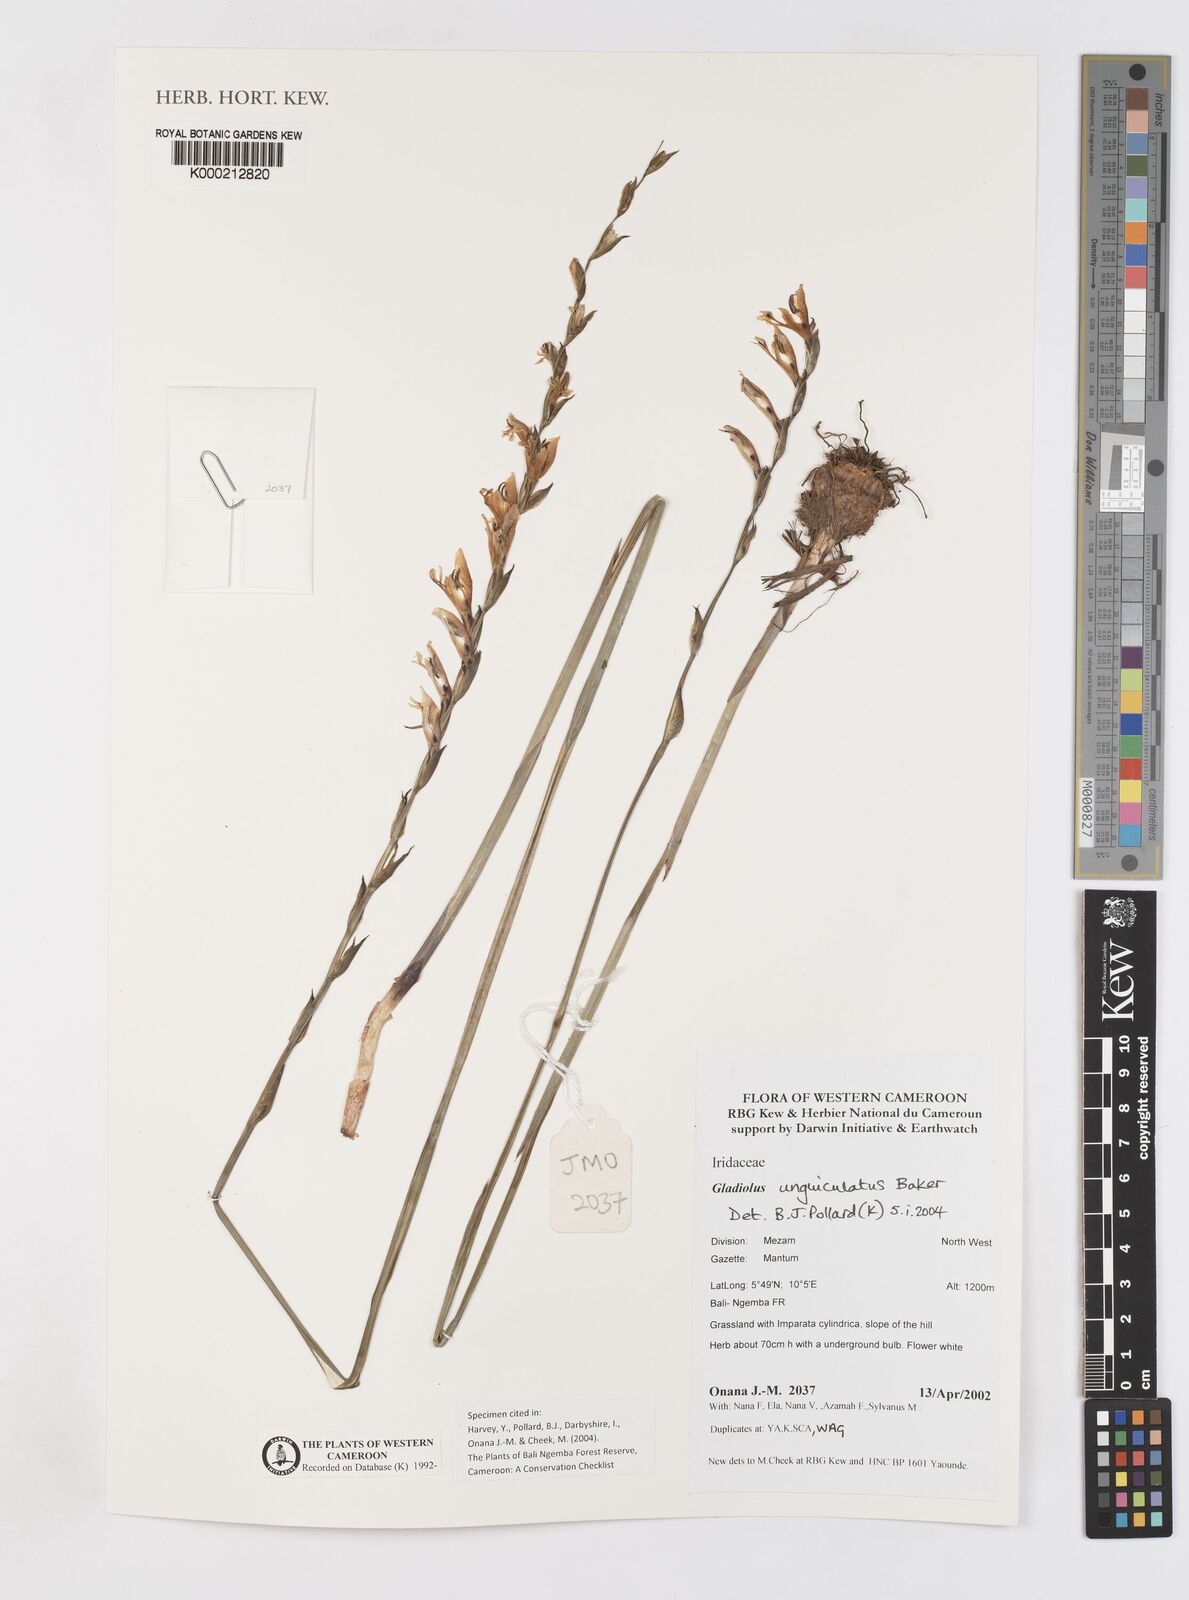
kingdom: Plantae
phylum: Tracheophyta
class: Liliopsida
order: Asparagales
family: Iridaceae
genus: Gladiolus
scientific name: Gladiolus unguiculatus
